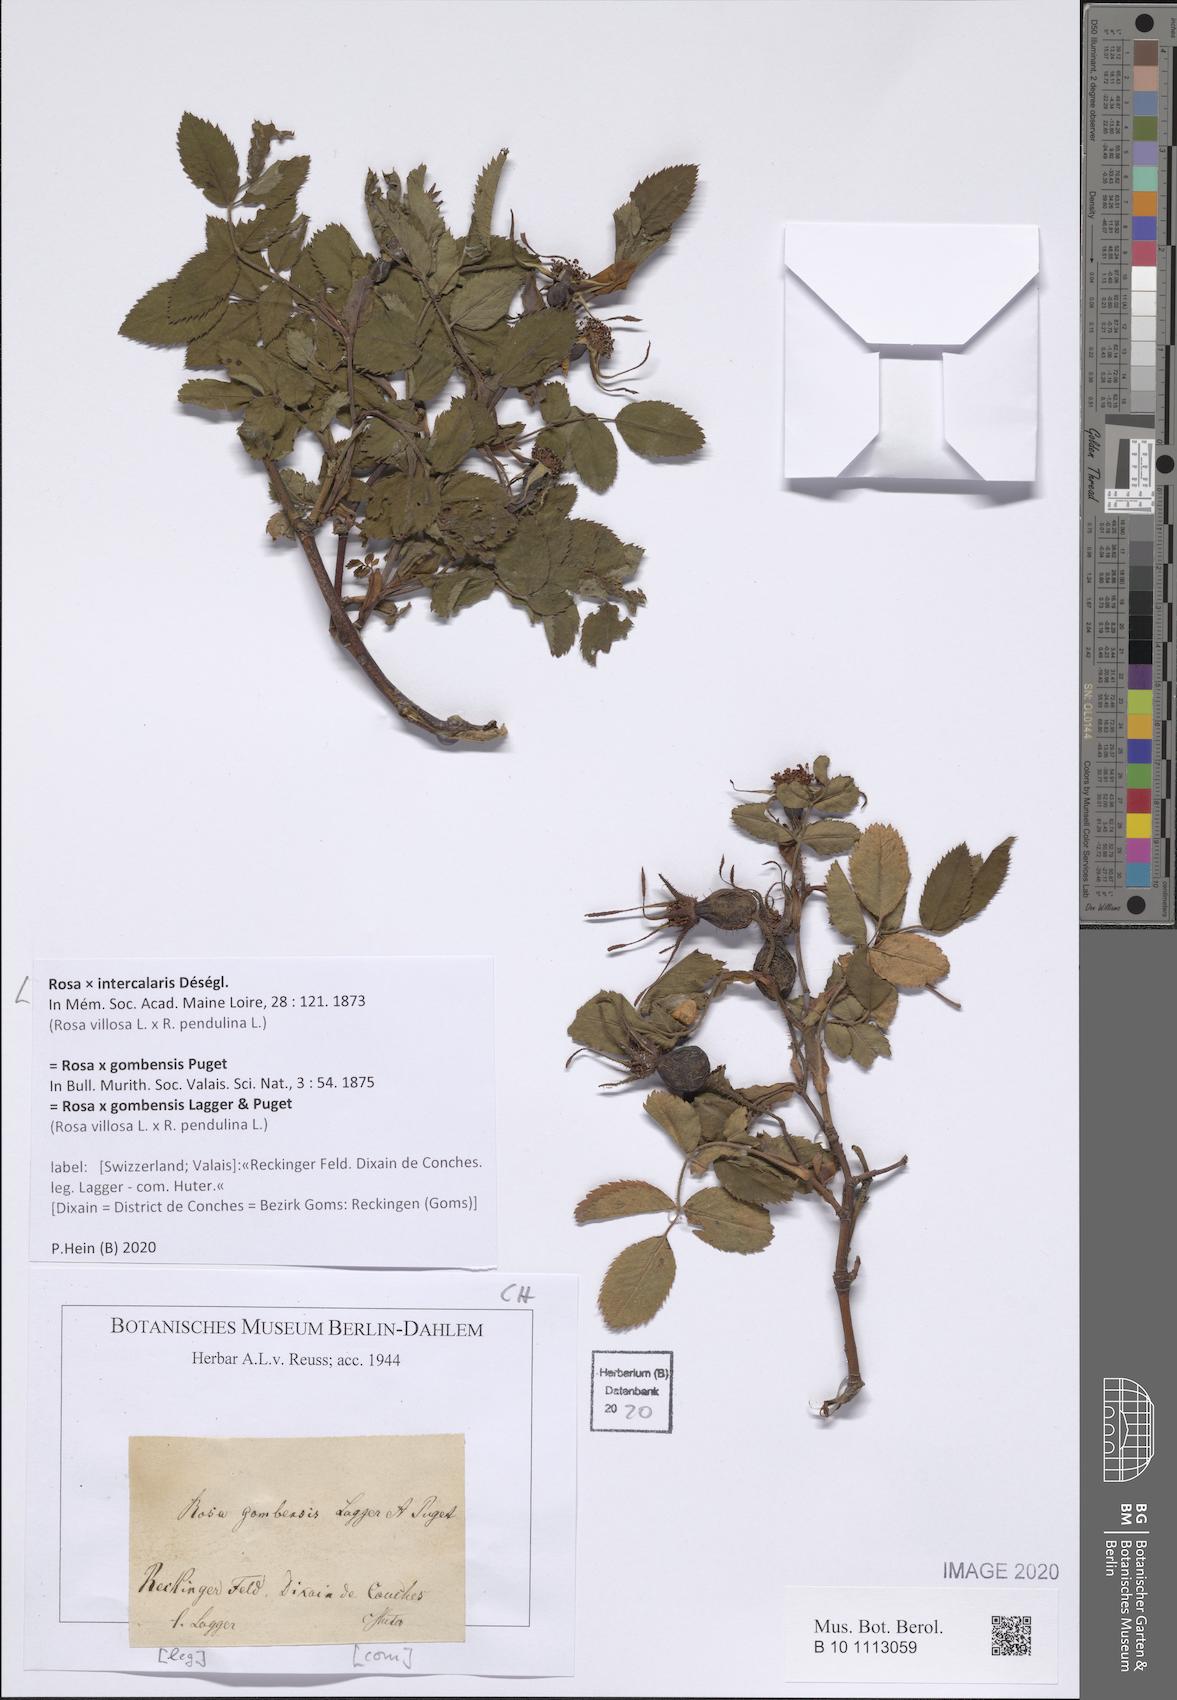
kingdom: Plantae
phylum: Tracheophyta
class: Magnoliopsida
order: Rosales
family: Rosaceae
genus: Rosa
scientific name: Rosa pendulina
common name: Alpine rose
